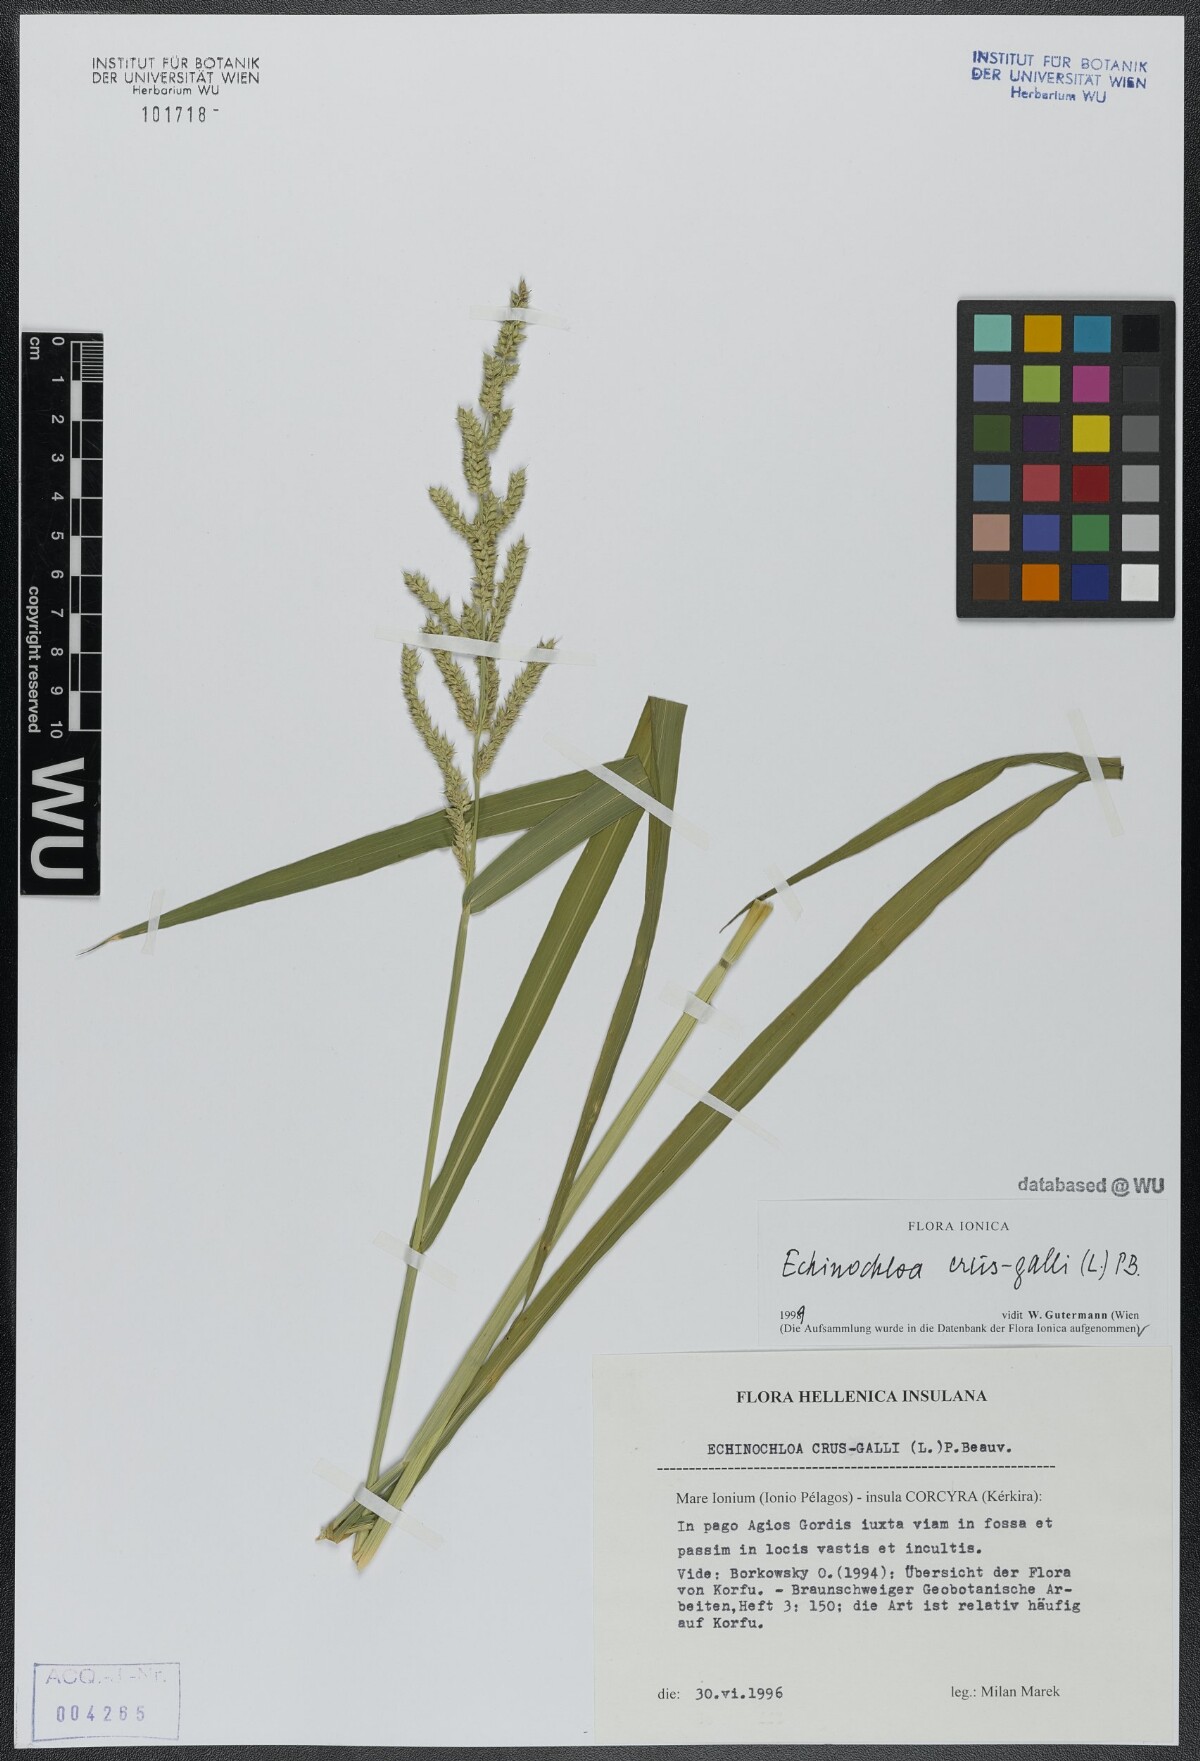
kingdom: Plantae
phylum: Tracheophyta
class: Liliopsida
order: Poales
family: Poaceae
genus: Echinochloa
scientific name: Echinochloa crus-galli
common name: Cockspur
